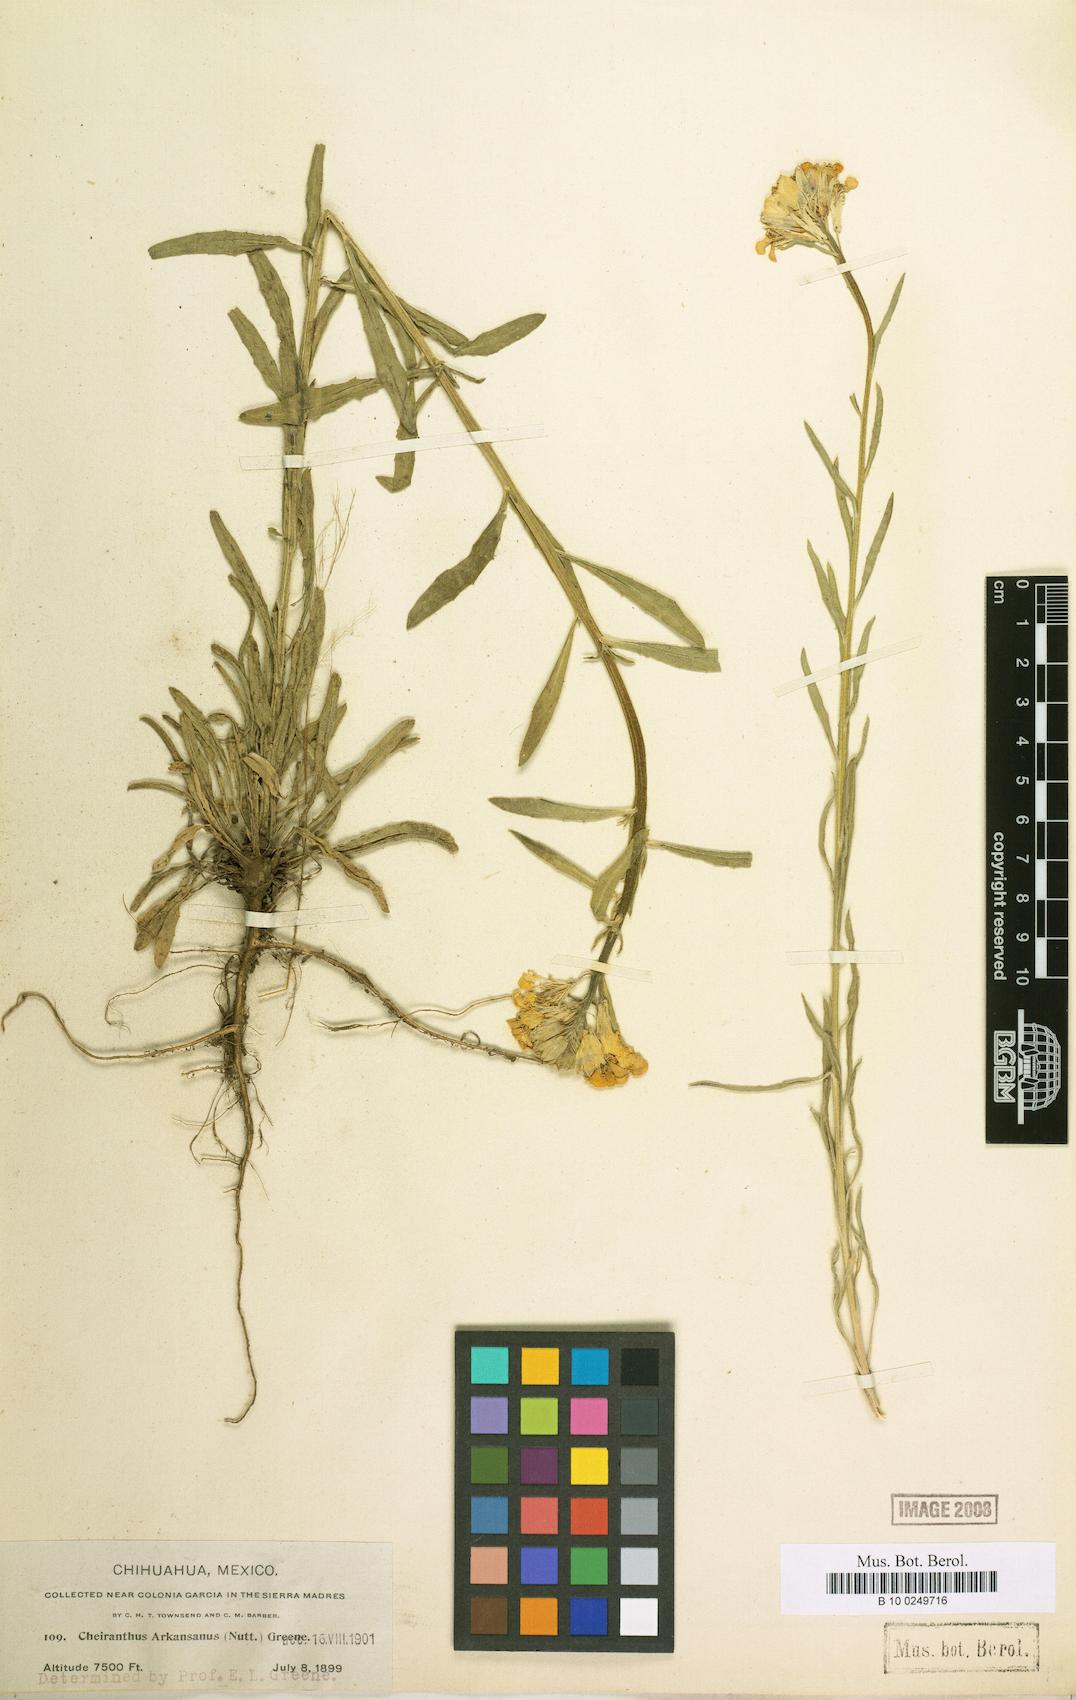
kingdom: Plantae
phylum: Tracheophyta
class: Magnoliopsida
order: Brassicales
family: Brassicaceae
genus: Erysimum
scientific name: Erysimum capitatum
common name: Western wallflower
